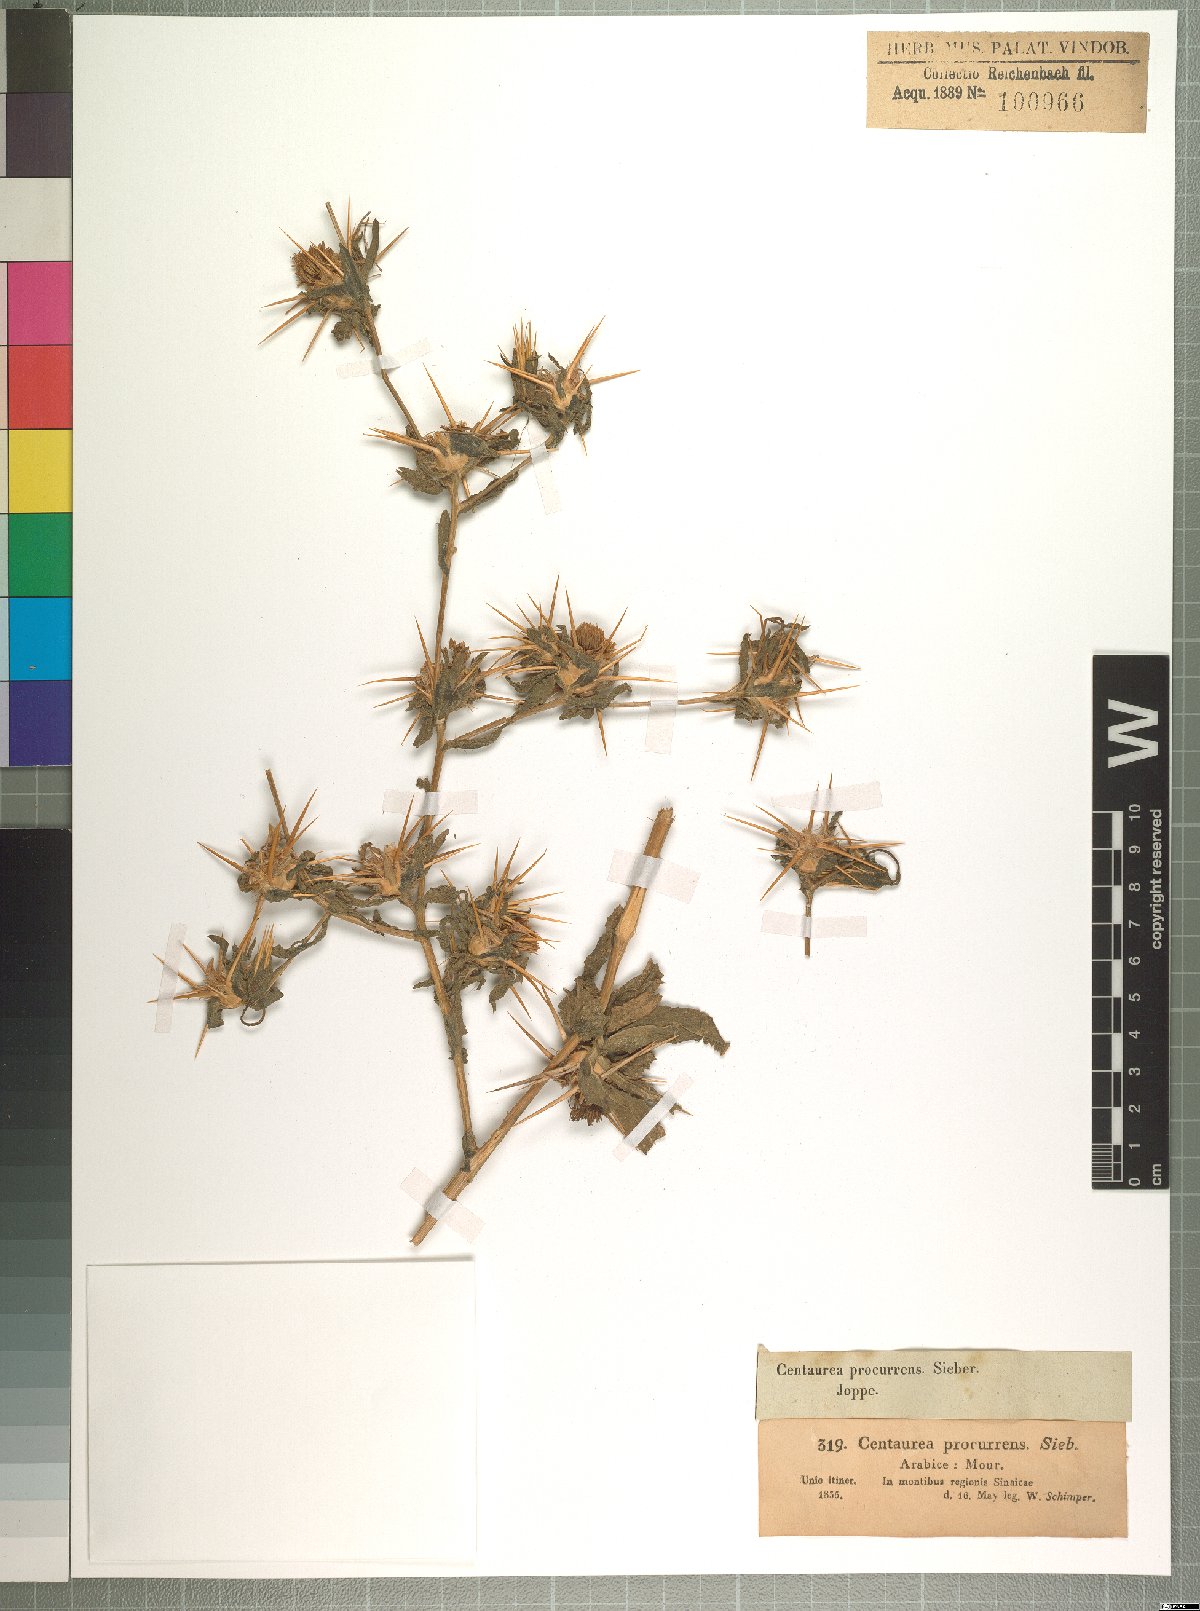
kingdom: Plantae
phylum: Tracheophyta
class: Magnoliopsida
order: Asterales
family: Asteraceae
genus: Centaurea
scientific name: Centaurea procurrens
